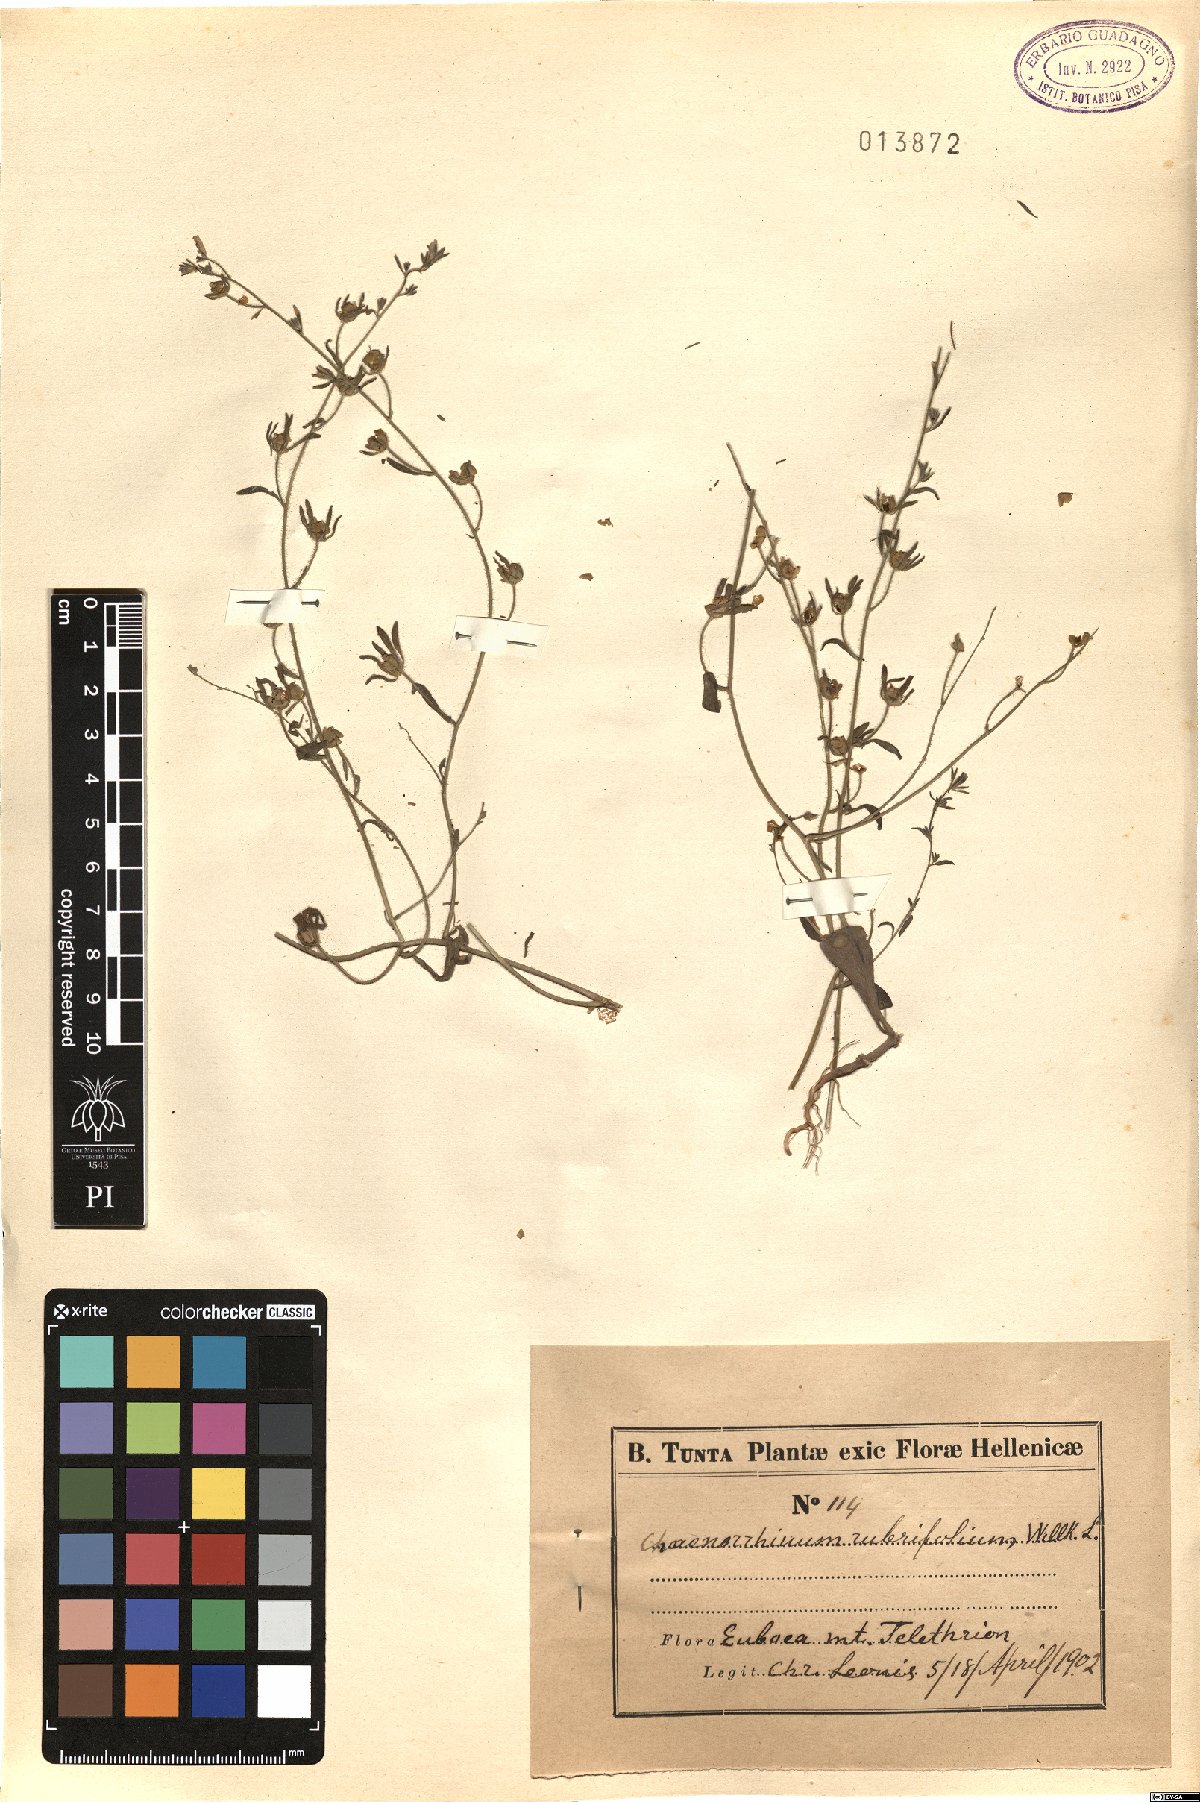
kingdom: Plantae
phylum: Tracheophyta
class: Magnoliopsida
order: Lamiales
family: Plantaginaceae
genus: Chaenorhinum
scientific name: Chaenorhinum rubrifolium
